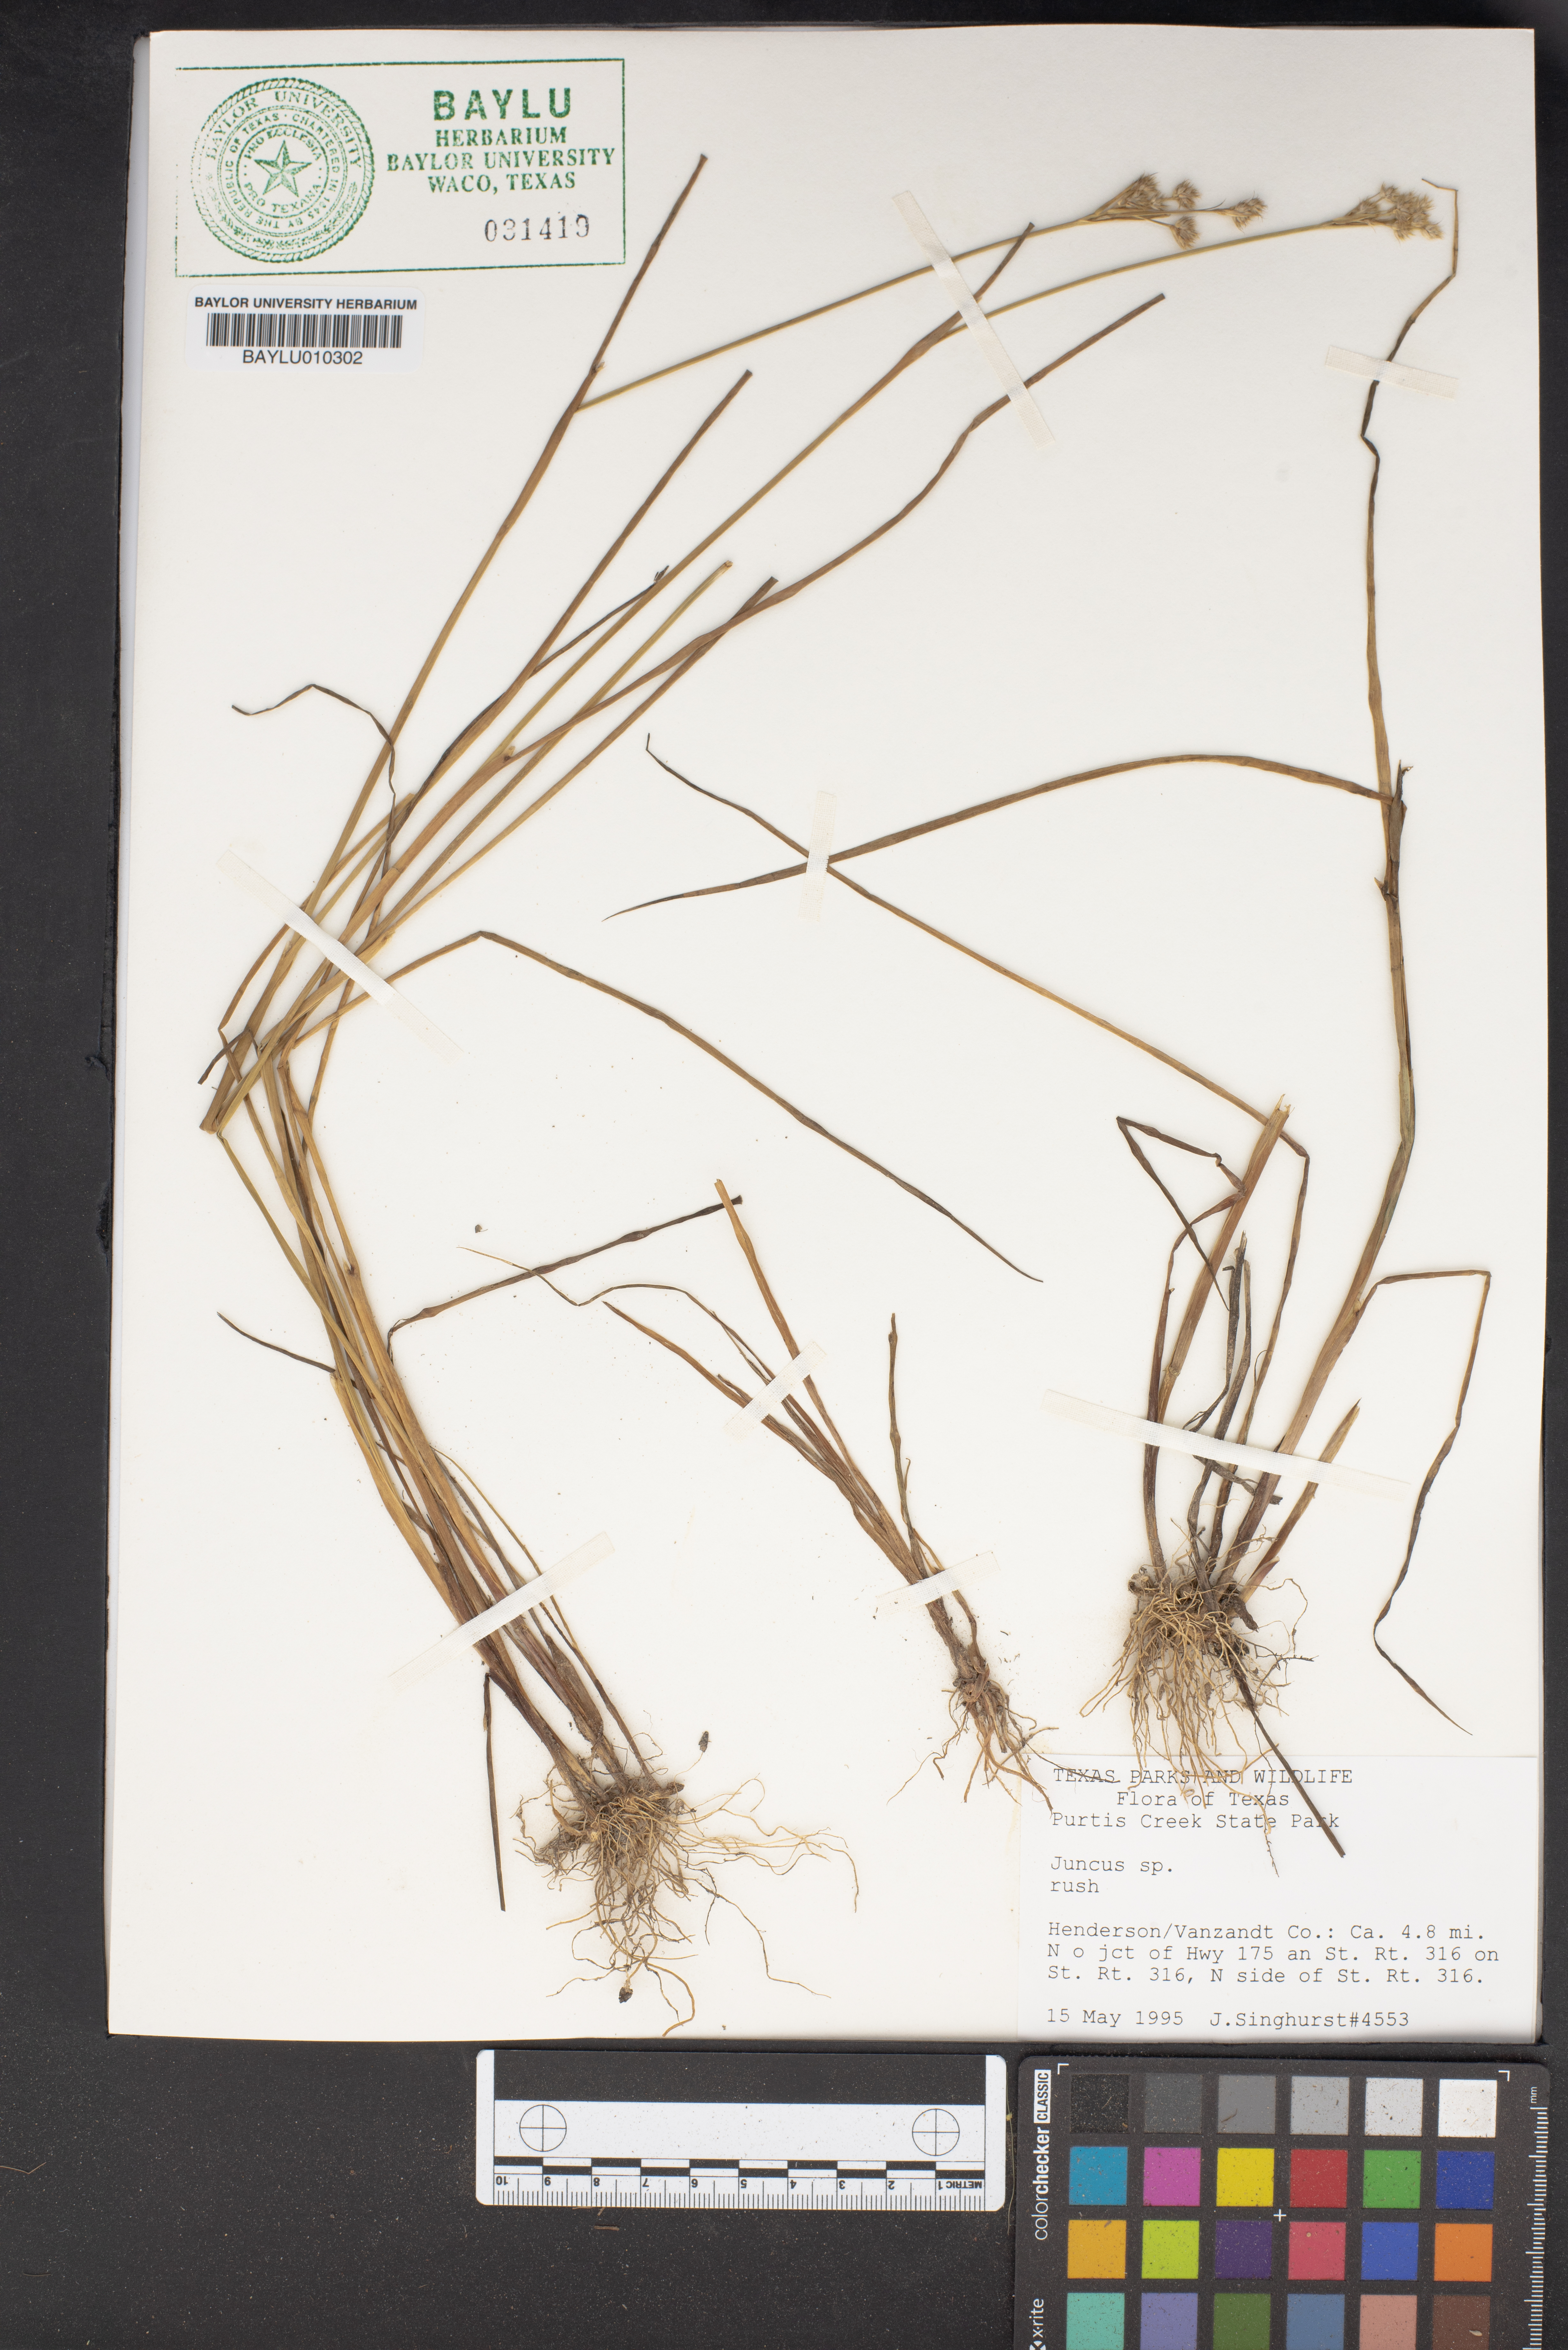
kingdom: Plantae
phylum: Tracheophyta
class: Liliopsida
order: Poales
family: Juncaceae
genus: Juncus
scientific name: Juncus
